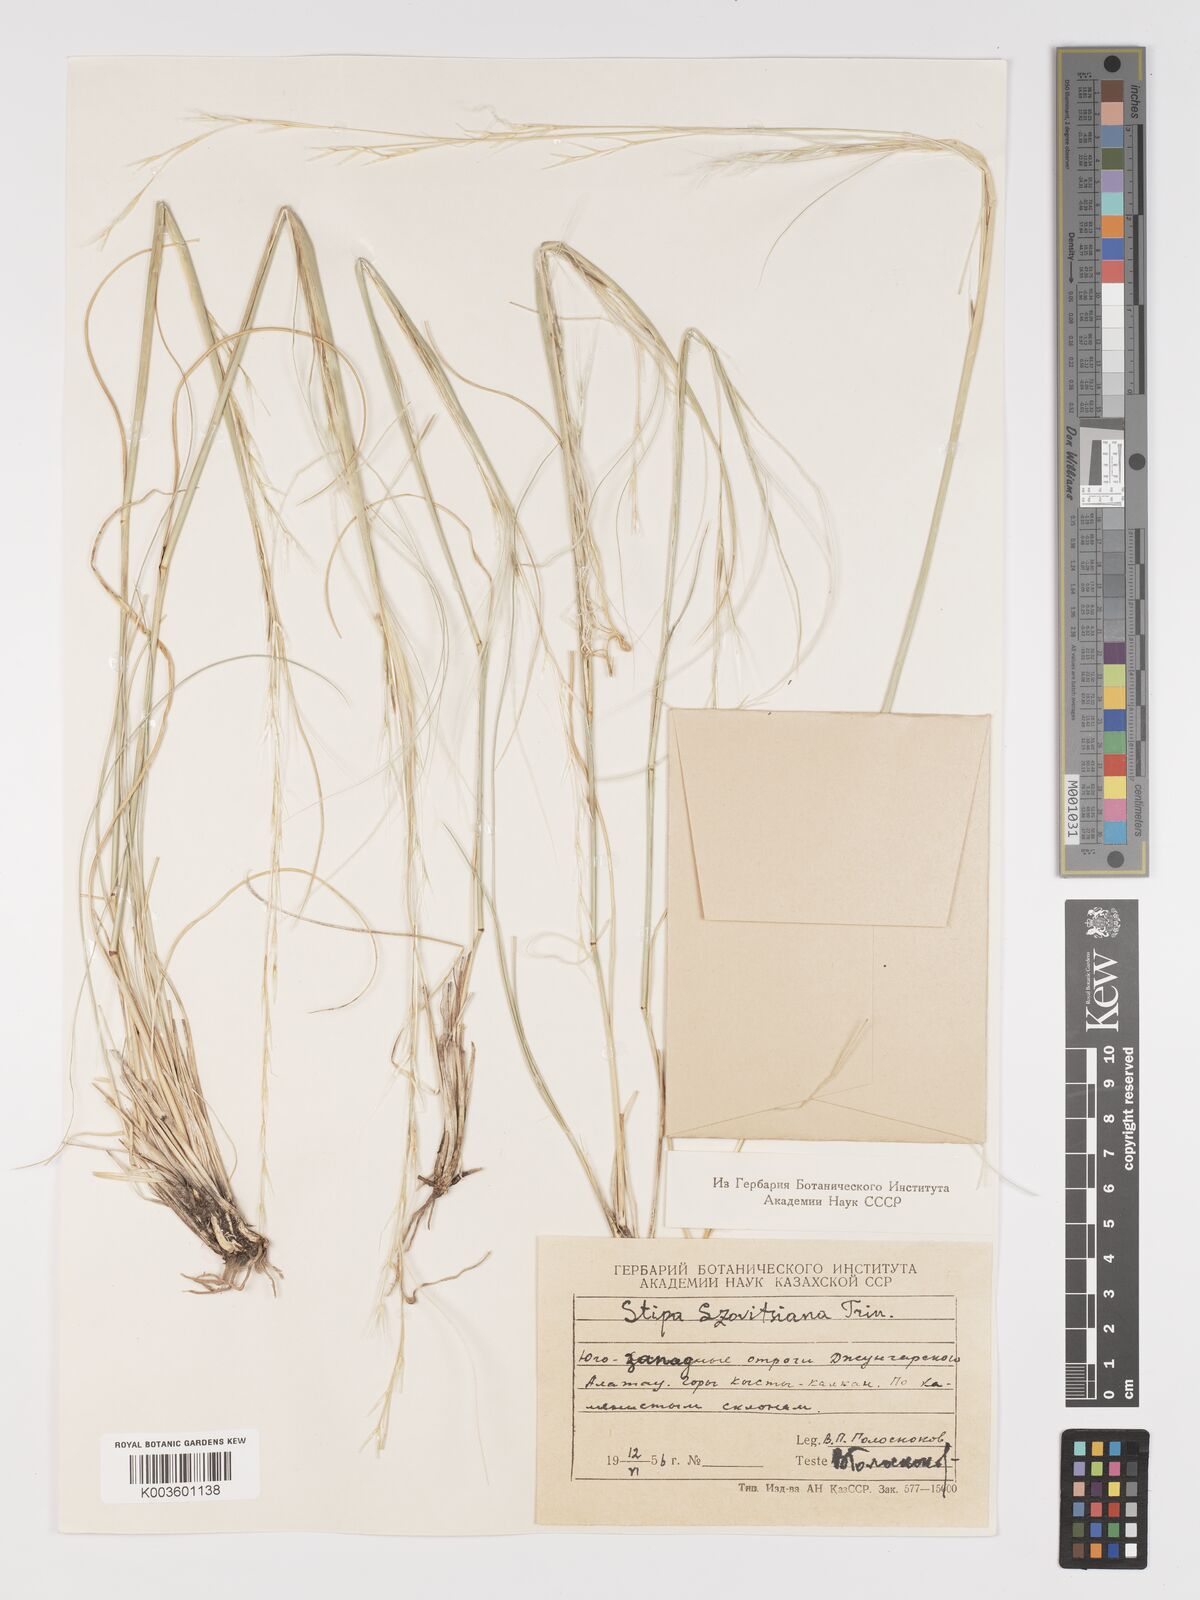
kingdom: Plantae
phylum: Tracheophyta
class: Liliopsida
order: Poales
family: Poaceae
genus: Stipa
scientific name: Stipa arabica
